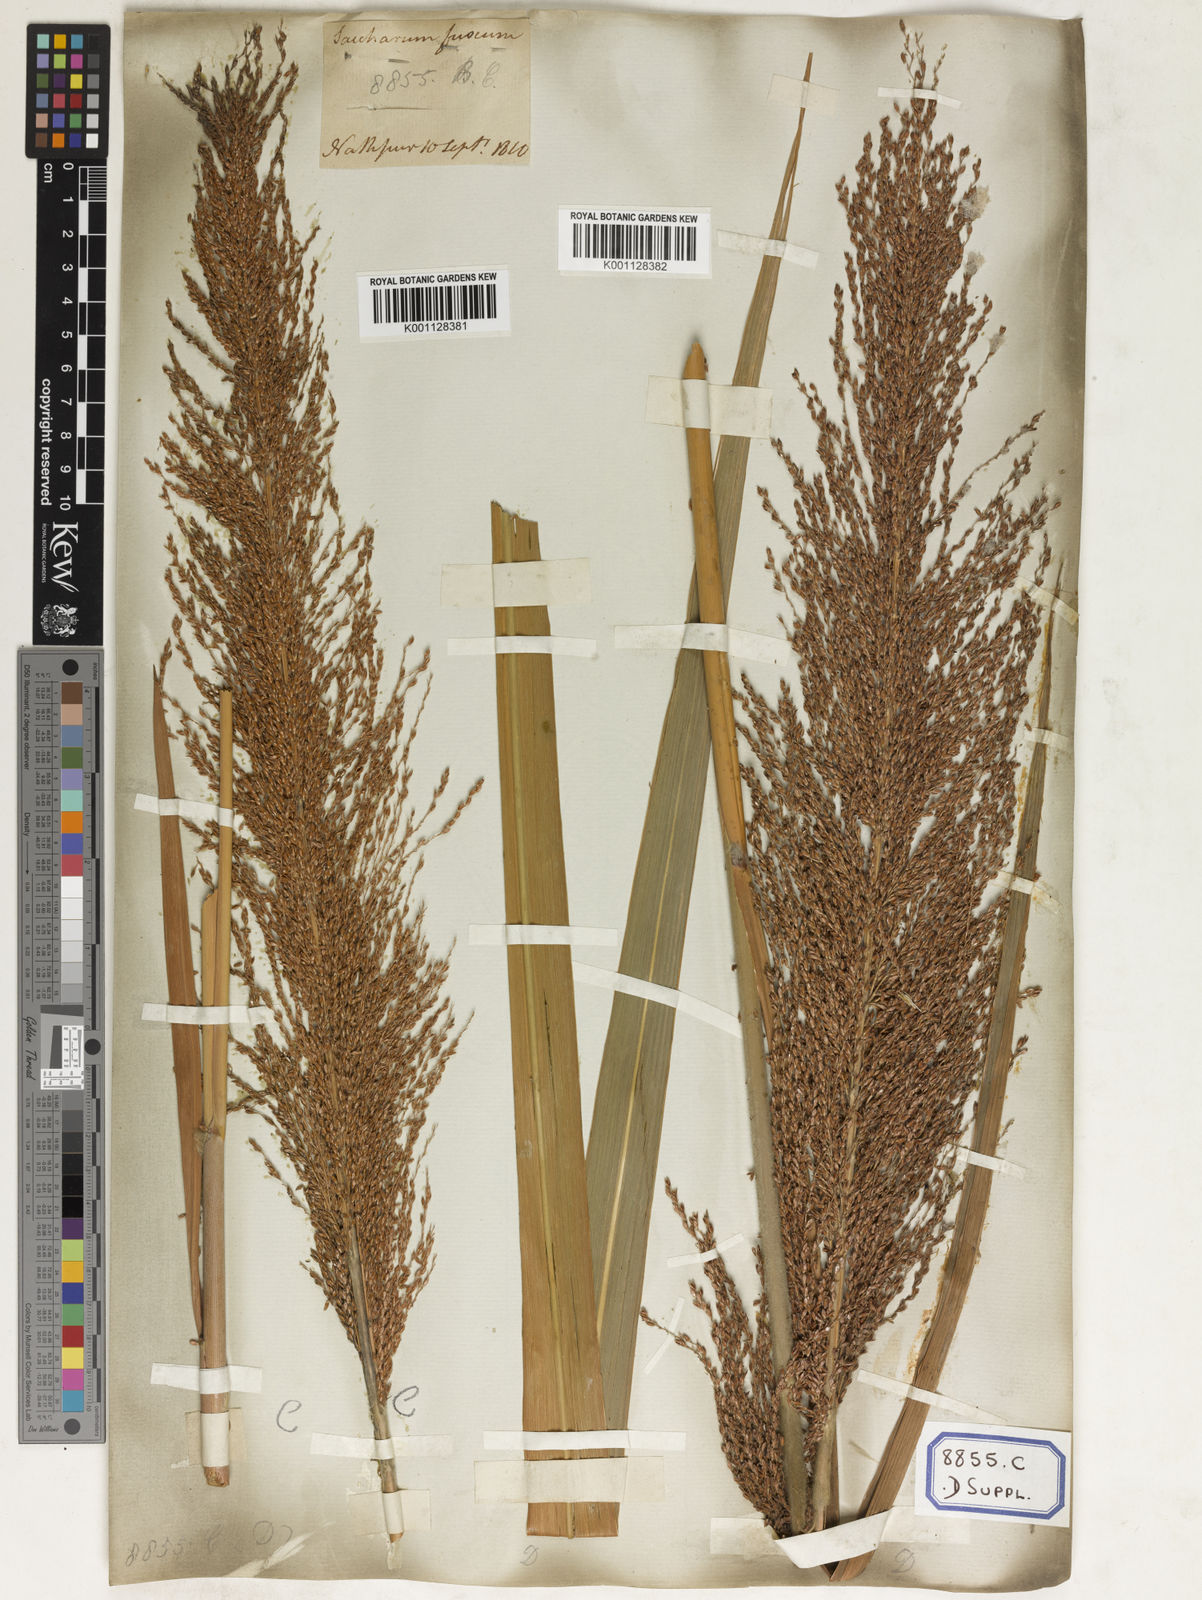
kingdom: Plantae
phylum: Tracheophyta
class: Liliopsida
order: Poales
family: Poaceae
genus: Saccharum
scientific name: Saccharum
